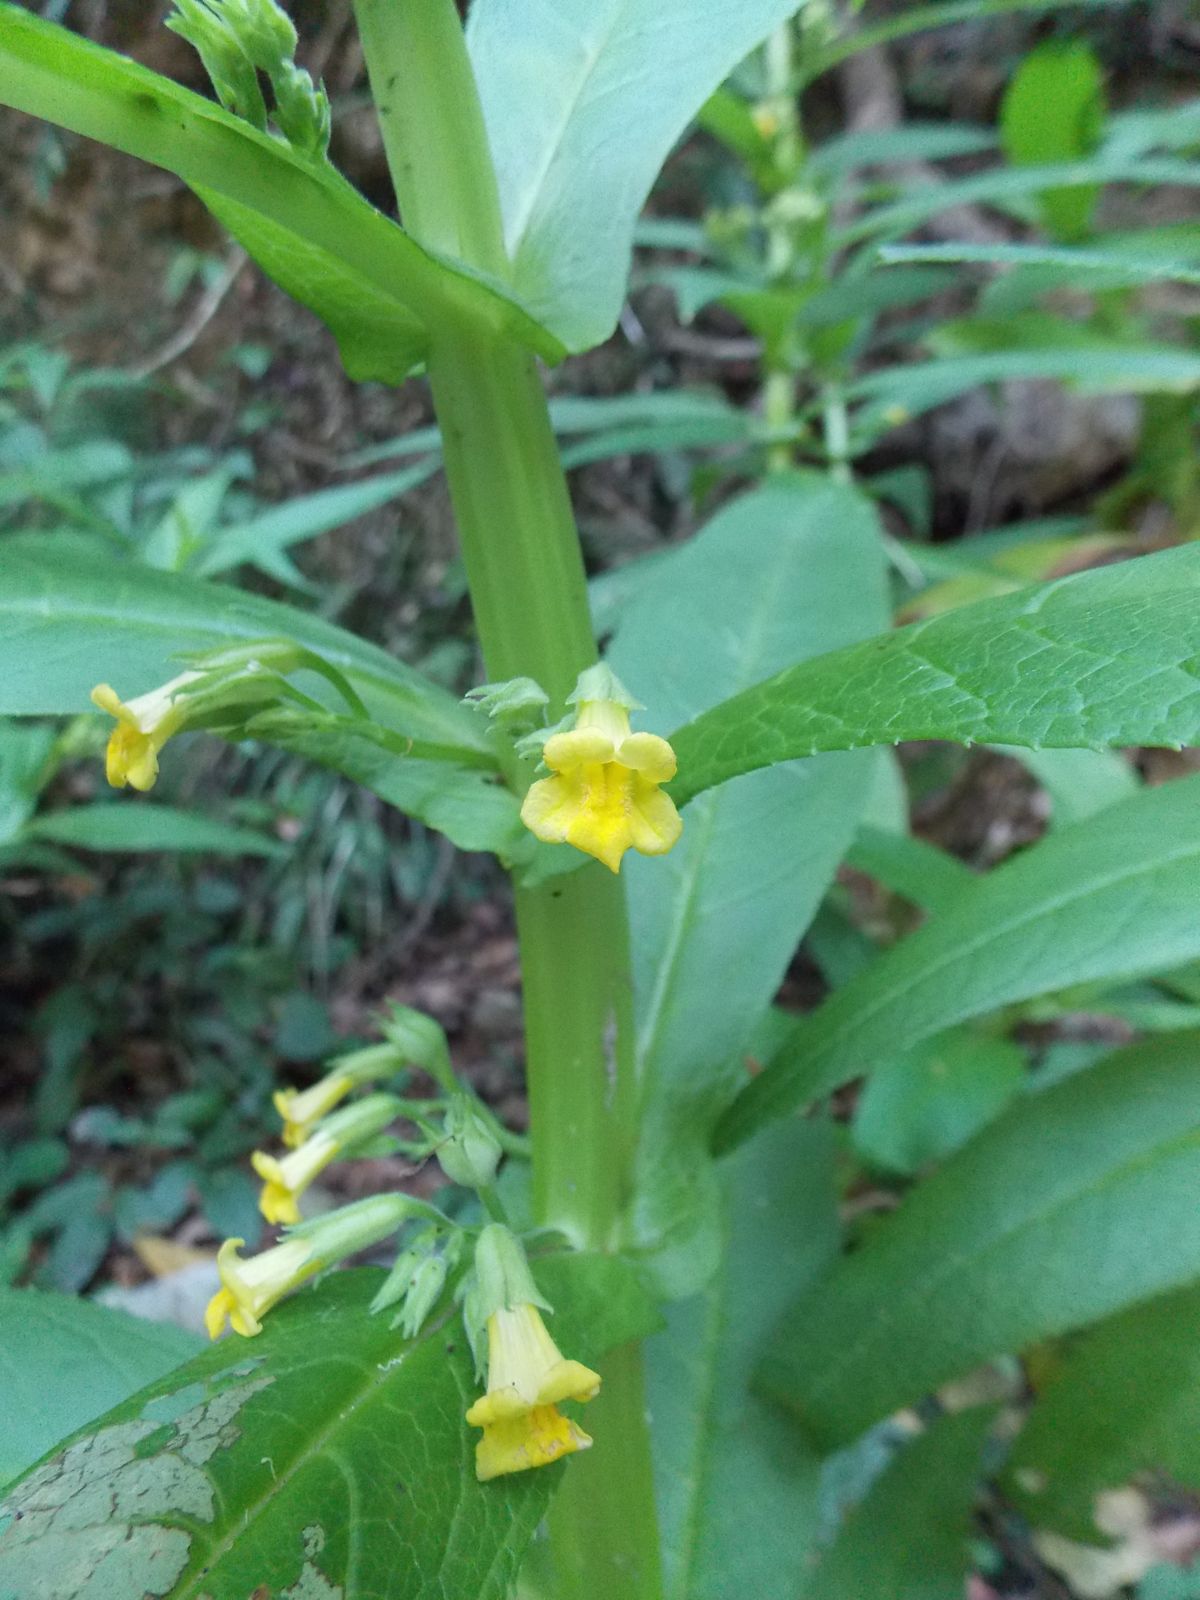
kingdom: Plantae
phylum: Tracheophyta
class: Magnoliopsida
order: Lamiales
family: Phrymaceae
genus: Leucocarpus
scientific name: Leucocarpus perfoliatus
